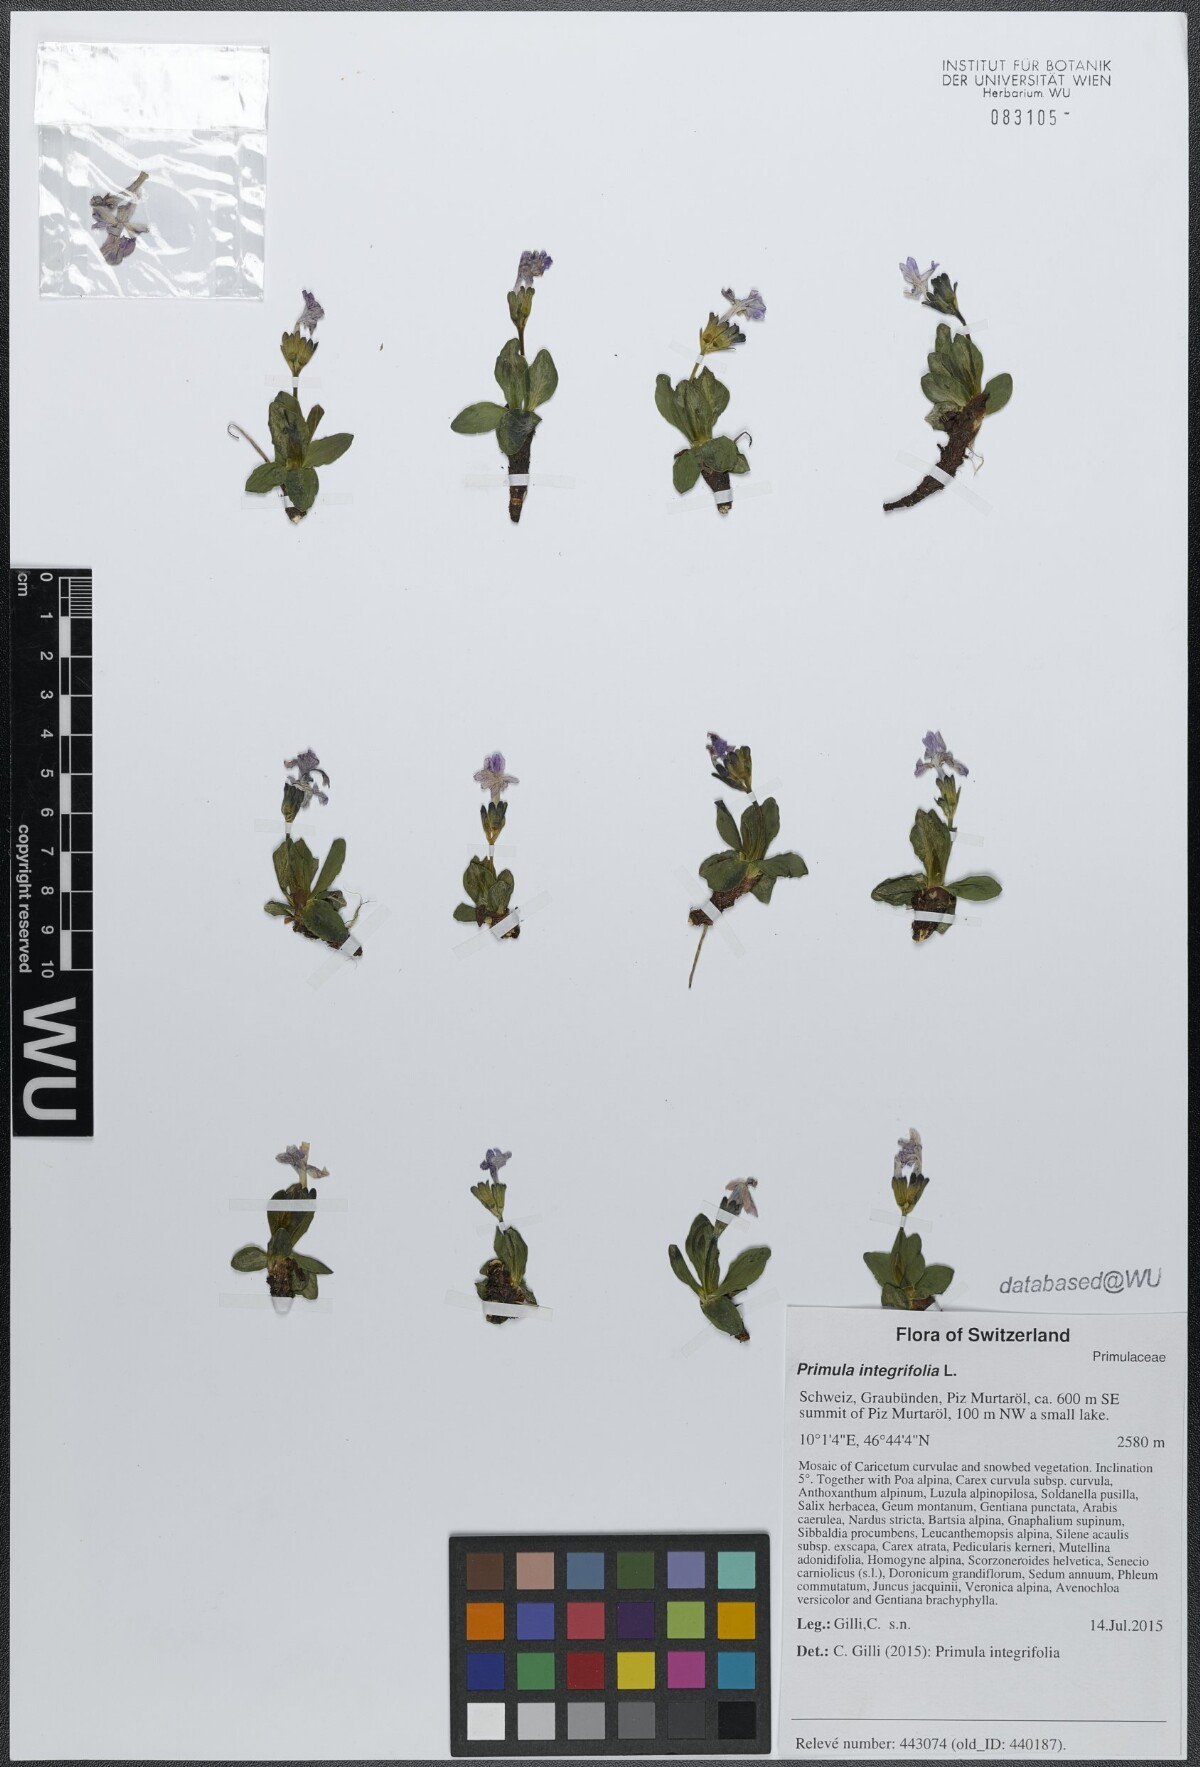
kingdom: Plantae
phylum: Tracheophyta
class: Magnoliopsida
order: Ericales
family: Primulaceae
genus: Primula
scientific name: Primula integrifolia
